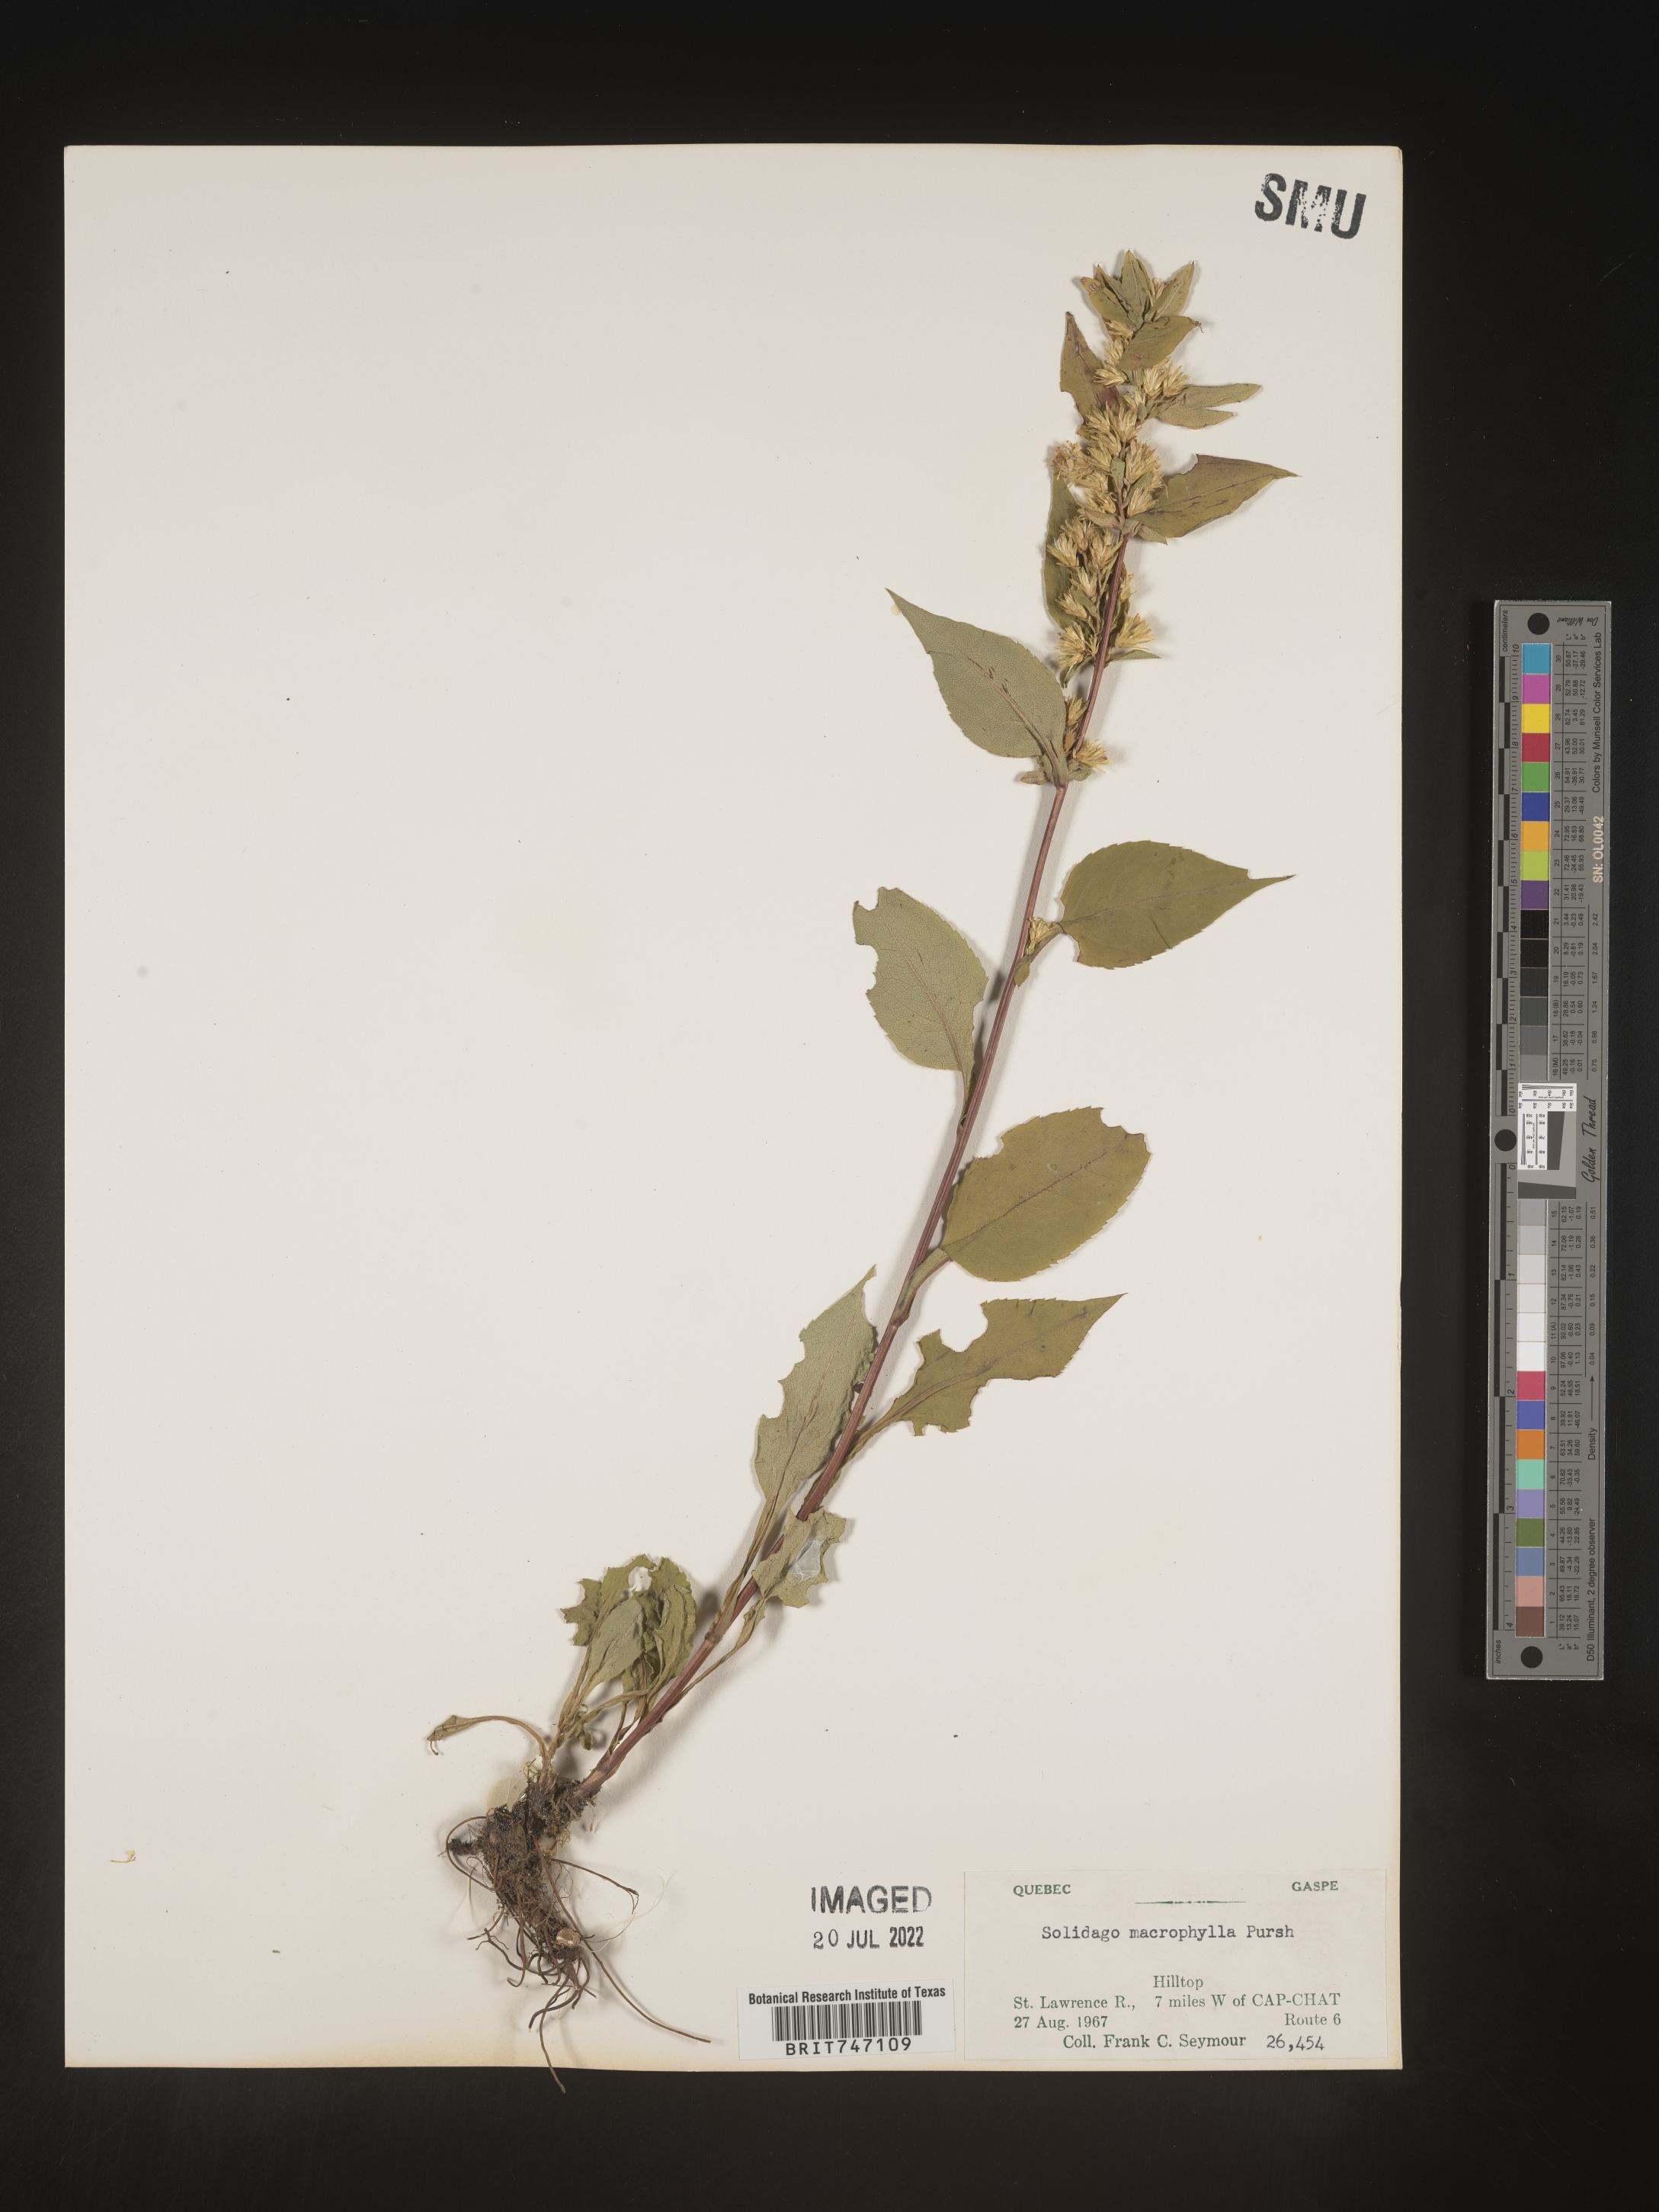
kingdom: Plantae
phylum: Tracheophyta
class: Magnoliopsida
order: Asterales
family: Asteraceae
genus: Solidago
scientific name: Solidago macrophylla
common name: Large-leaved goldenrod
